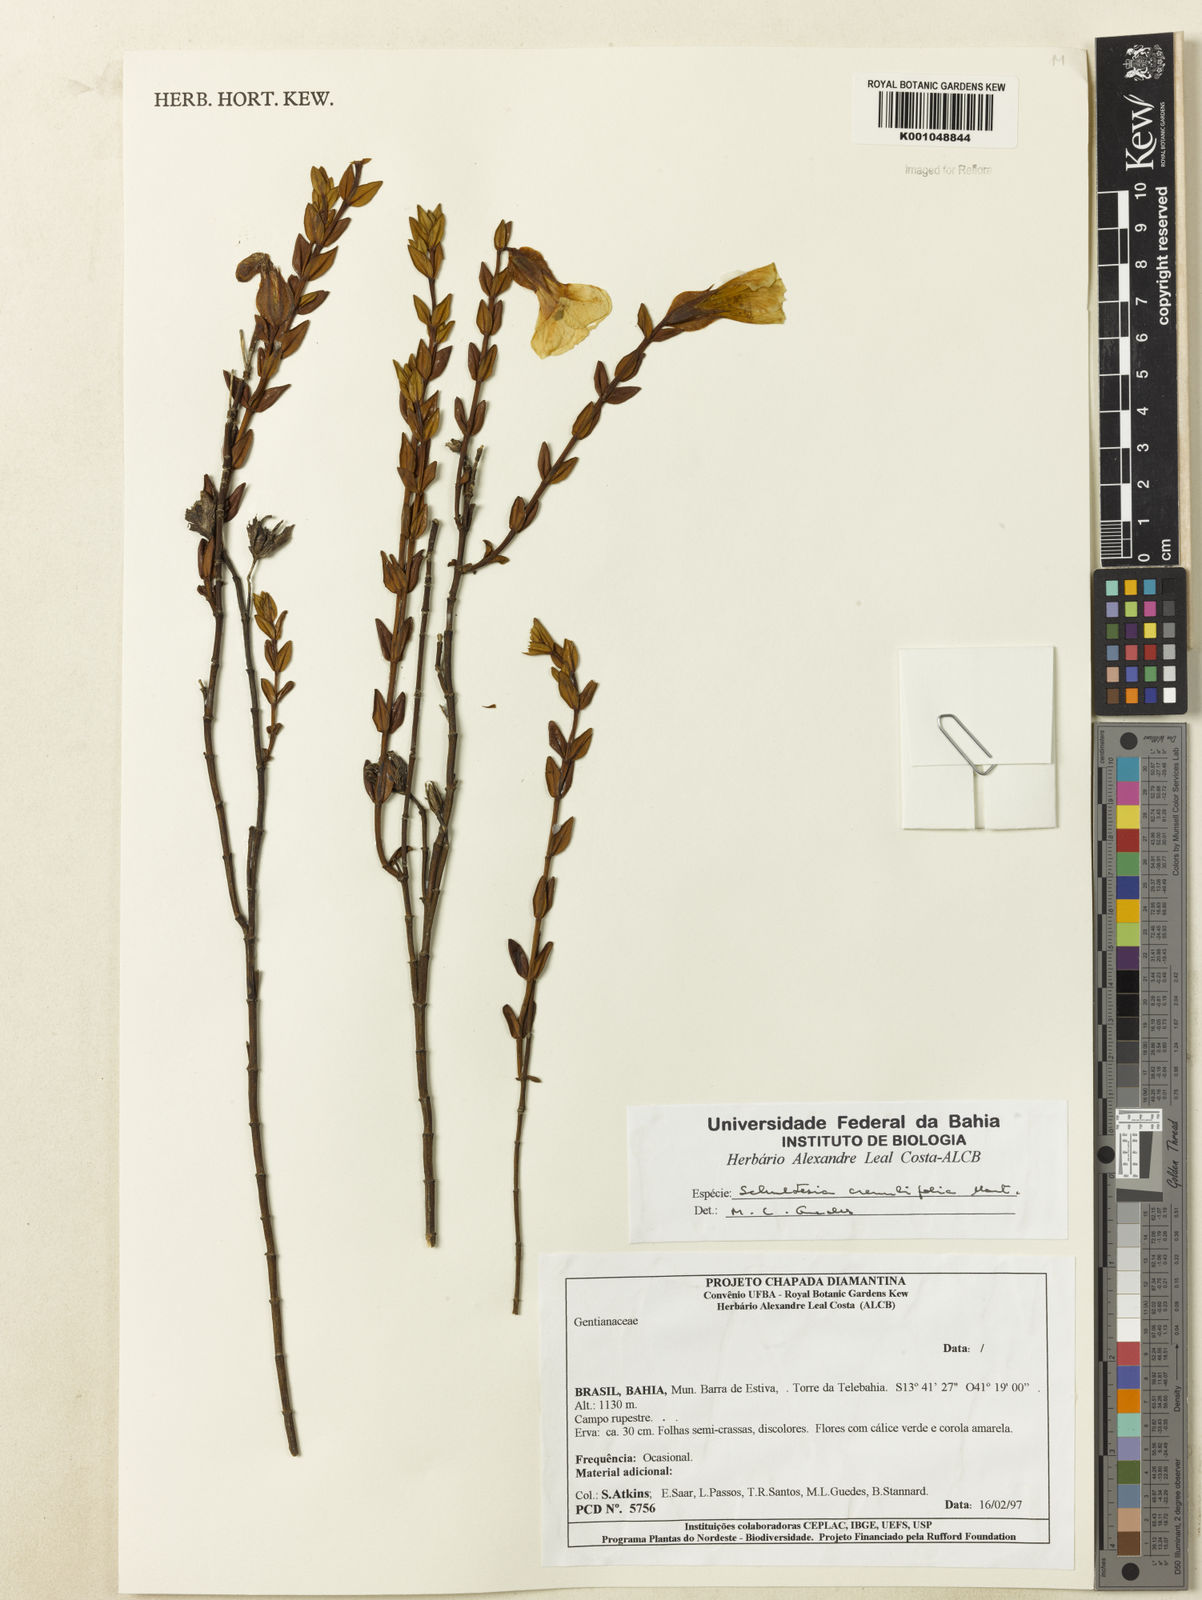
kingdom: Plantae
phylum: Tracheophyta
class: Magnoliopsida
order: Gentianales
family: Gentianaceae
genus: Schultesia
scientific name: Schultesia crenuliflora
